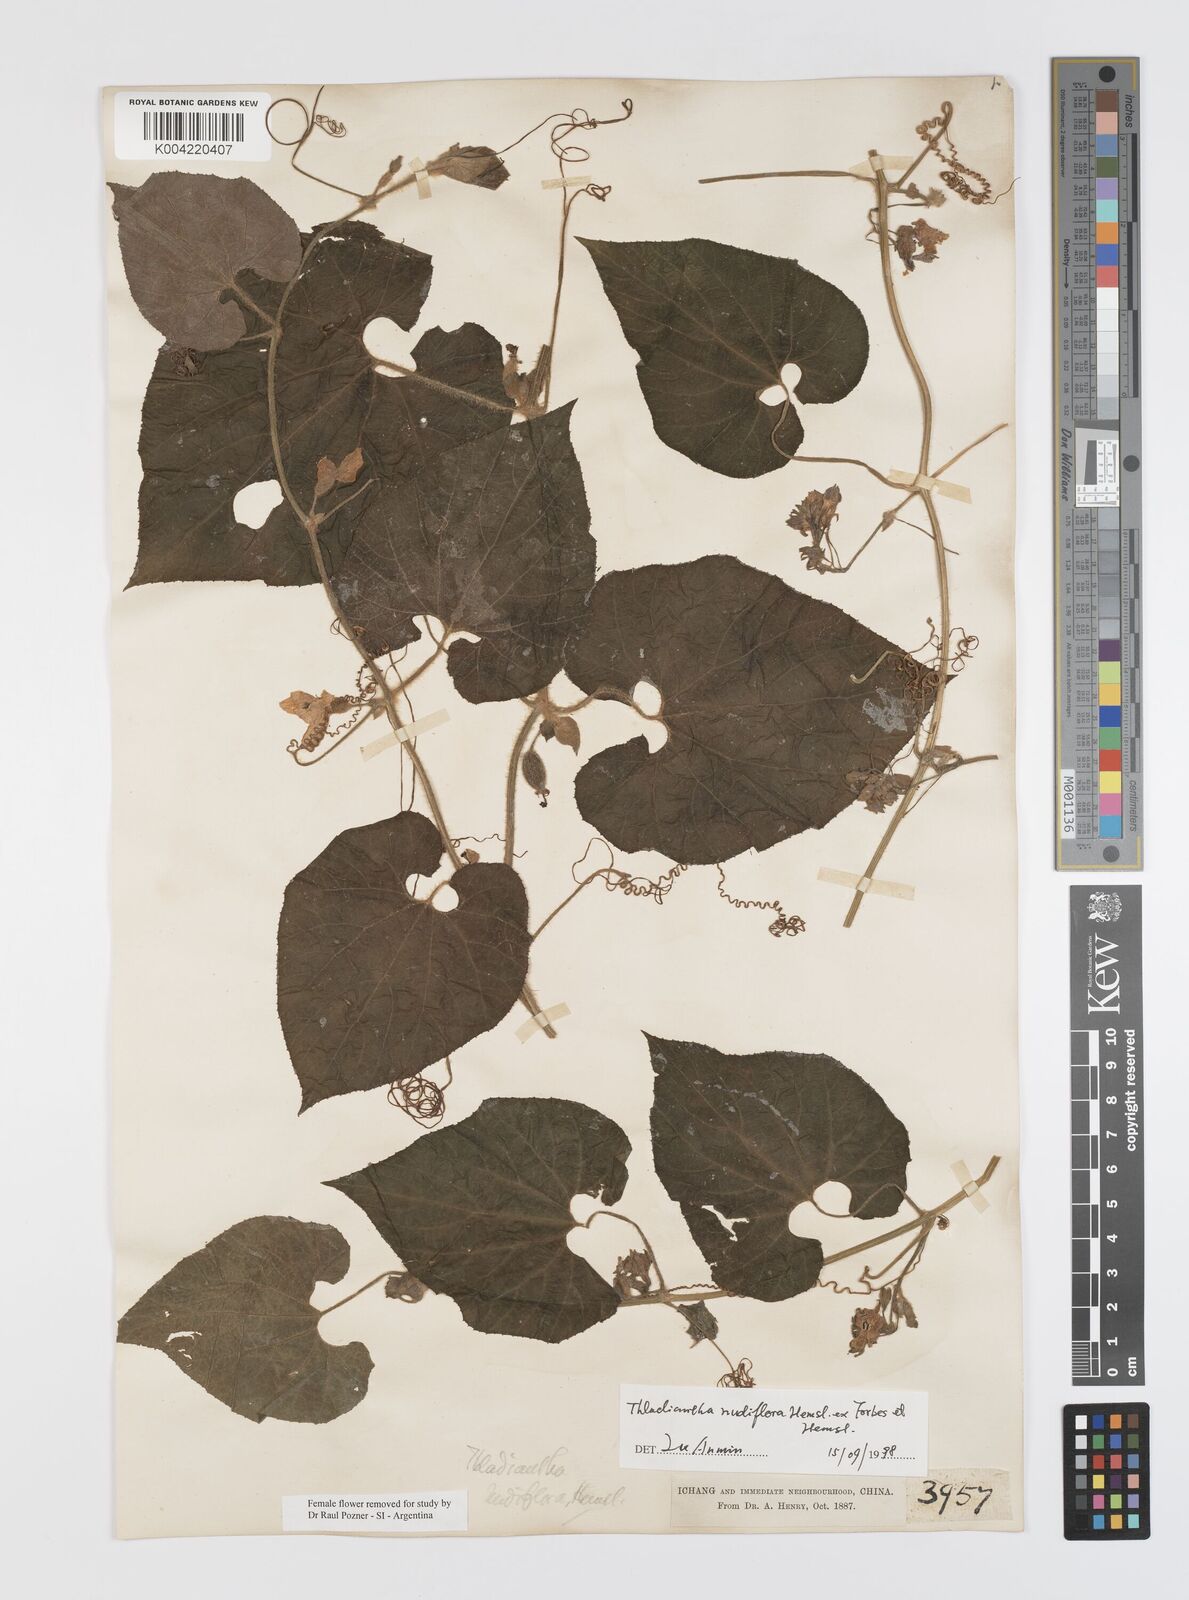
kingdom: Plantae
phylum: Tracheophyta
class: Magnoliopsida
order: Cucurbitales
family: Cucurbitaceae
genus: Thladiantha
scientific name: Thladiantha nudiflora
